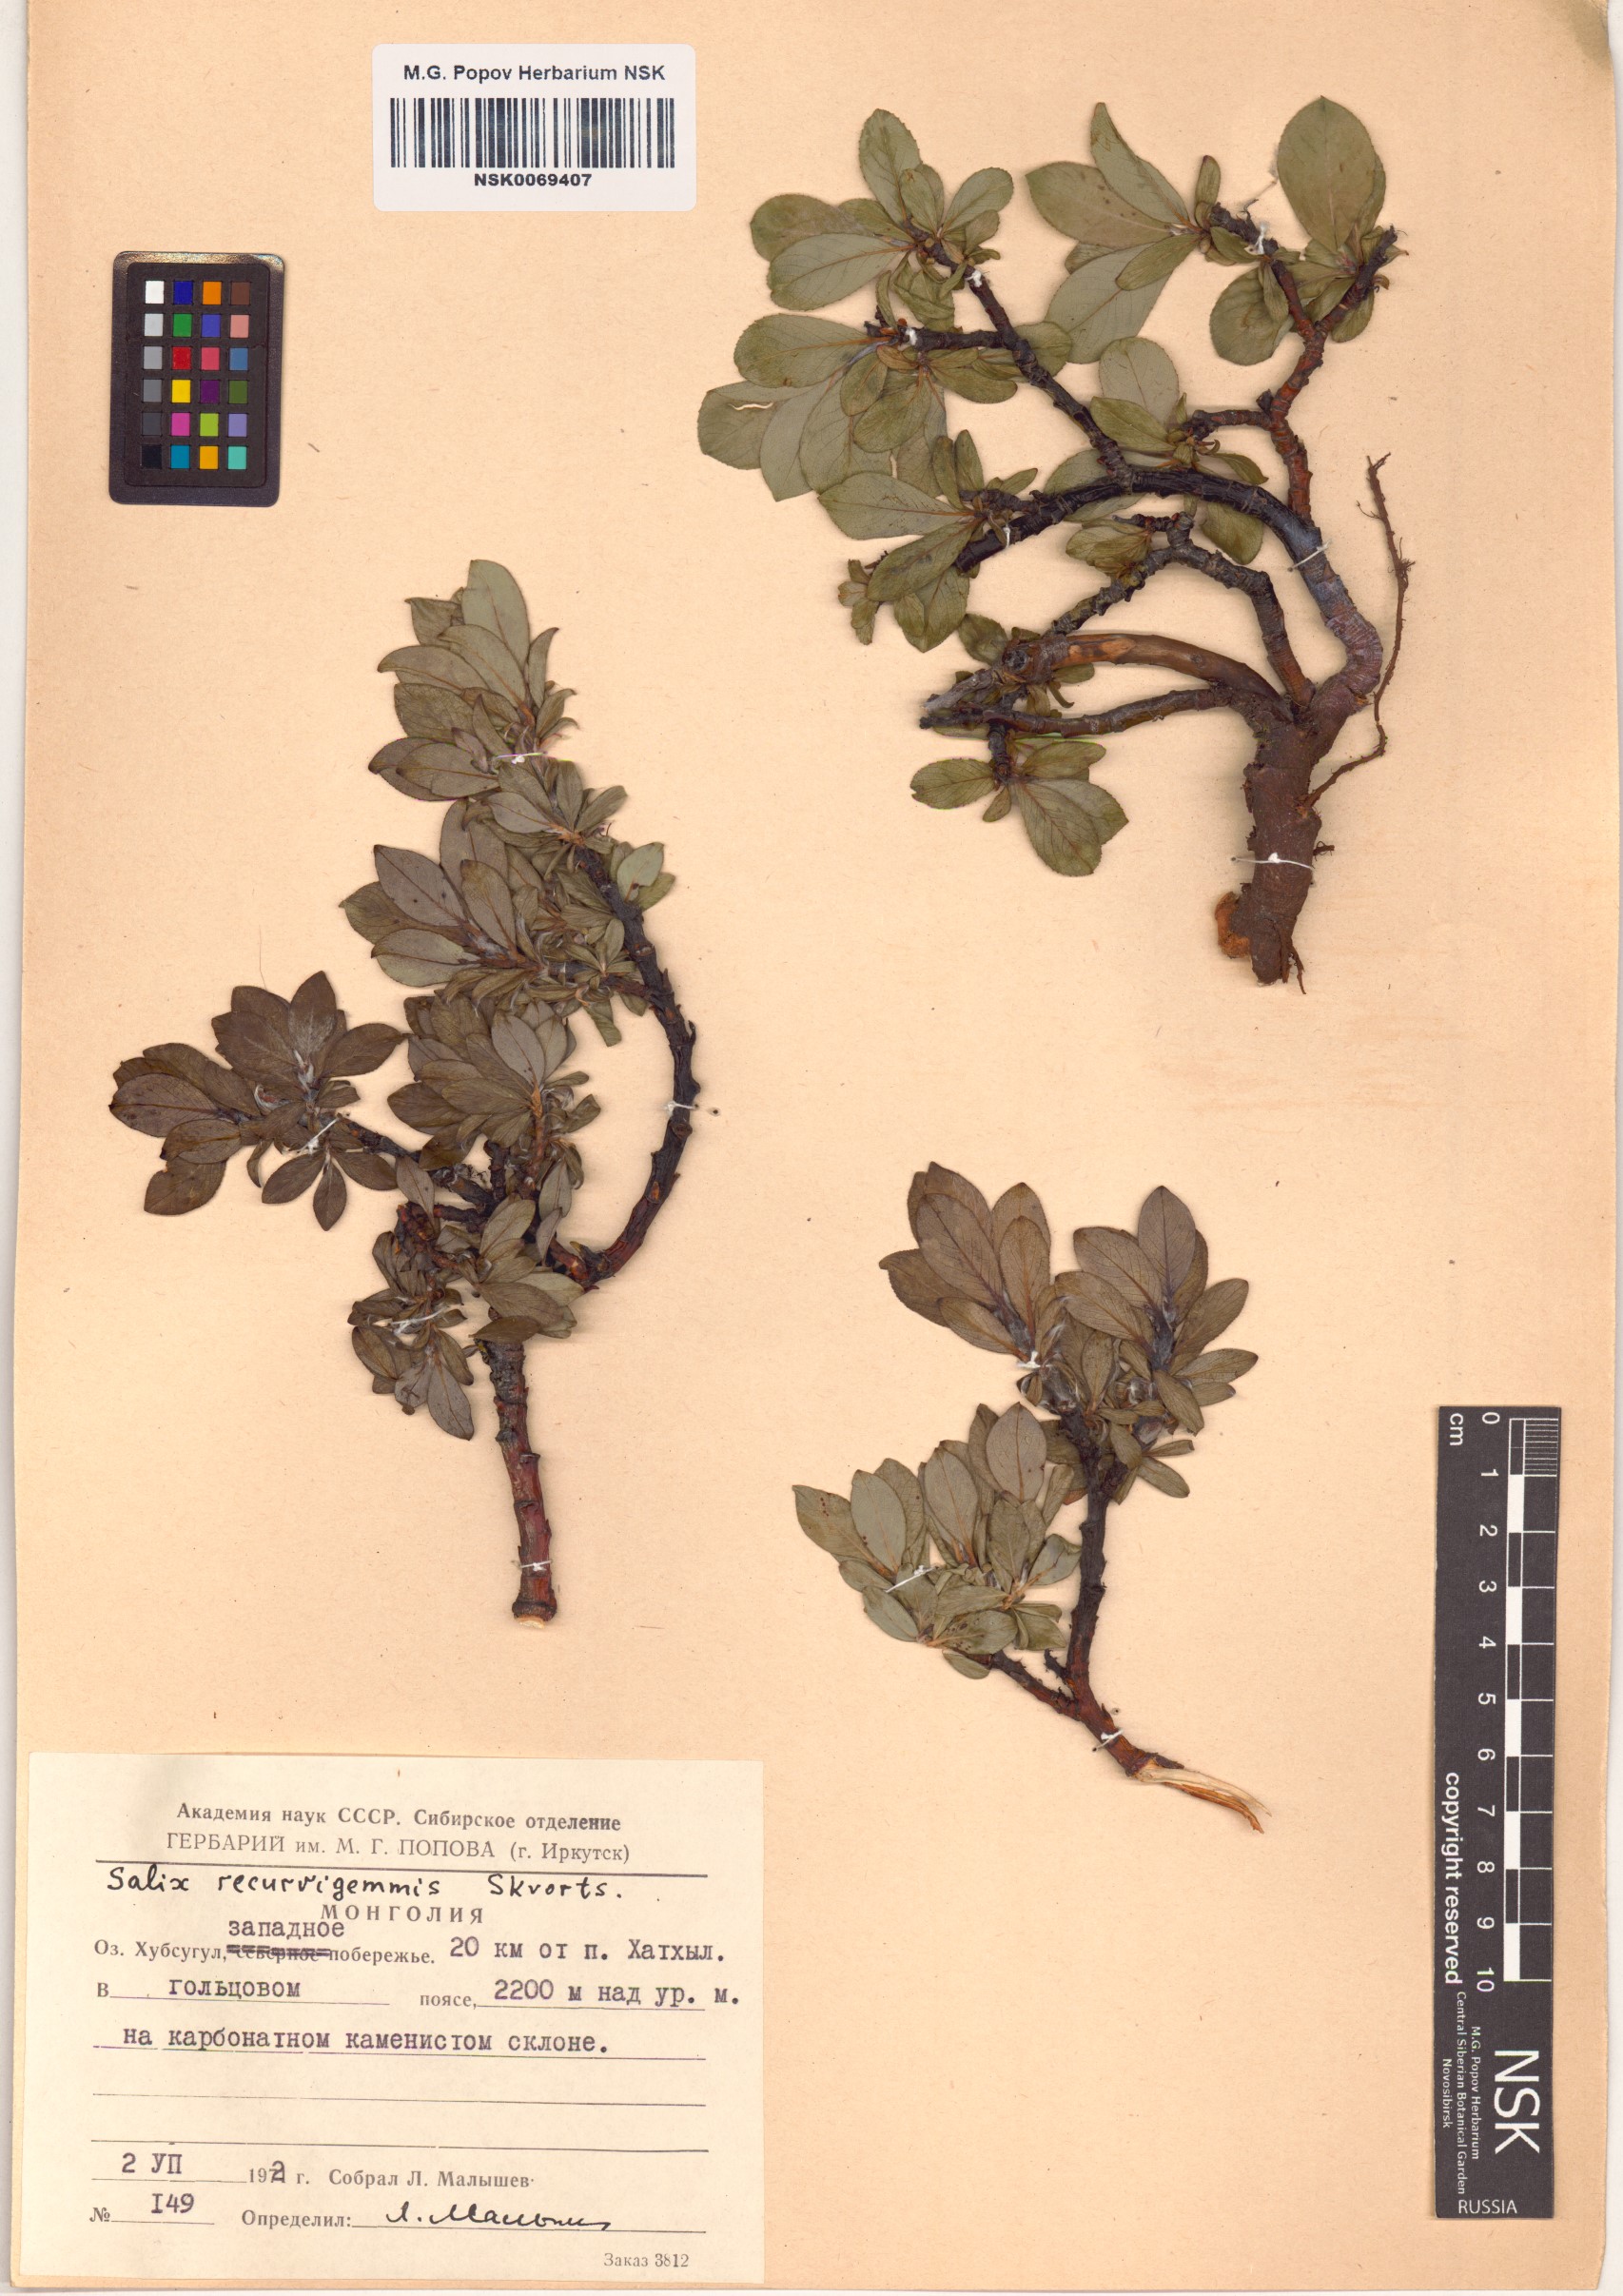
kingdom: Plantae
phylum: Tracheophyta
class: Magnoliopsida
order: Malpighiales
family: Salicaceae
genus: Salix
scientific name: Salix recurvigemmata
